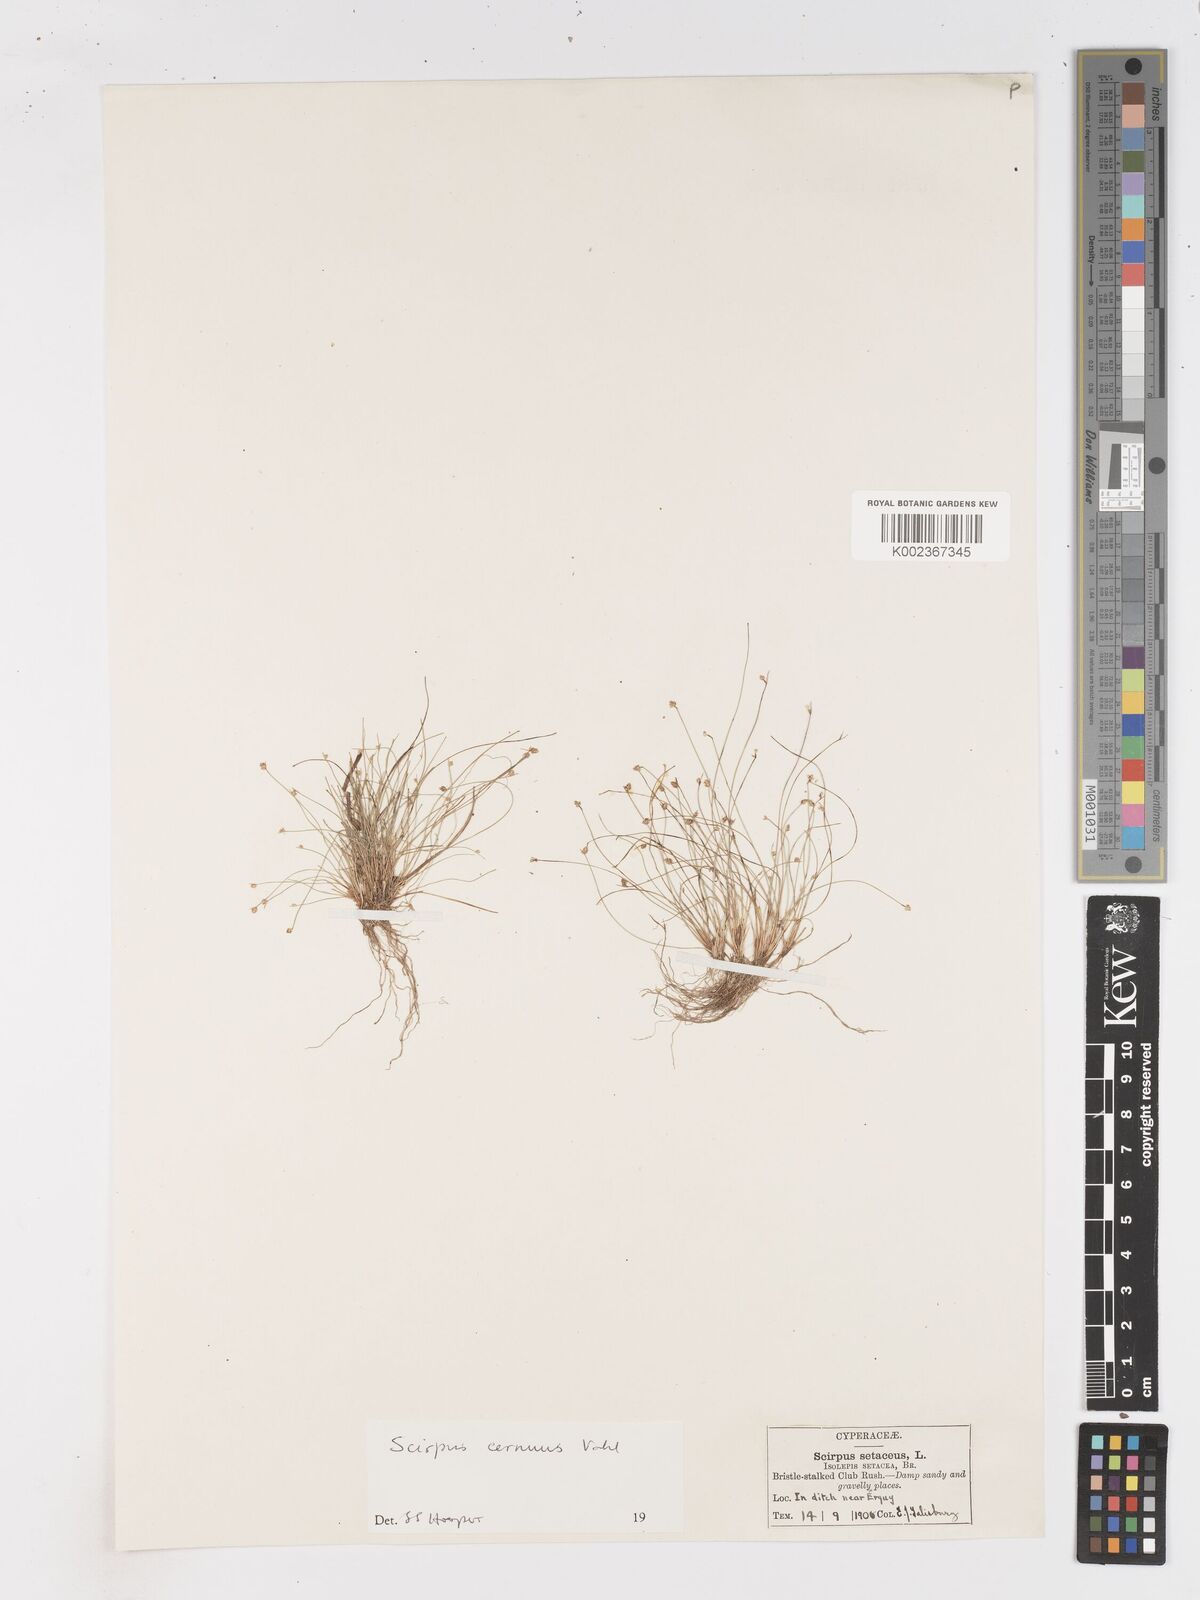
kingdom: Plantae
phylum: Tracheophyta
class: Liliopsida
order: Poales
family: Cyperaceae
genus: Isolepis
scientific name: Isolepis cernua
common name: Slender club-rush
